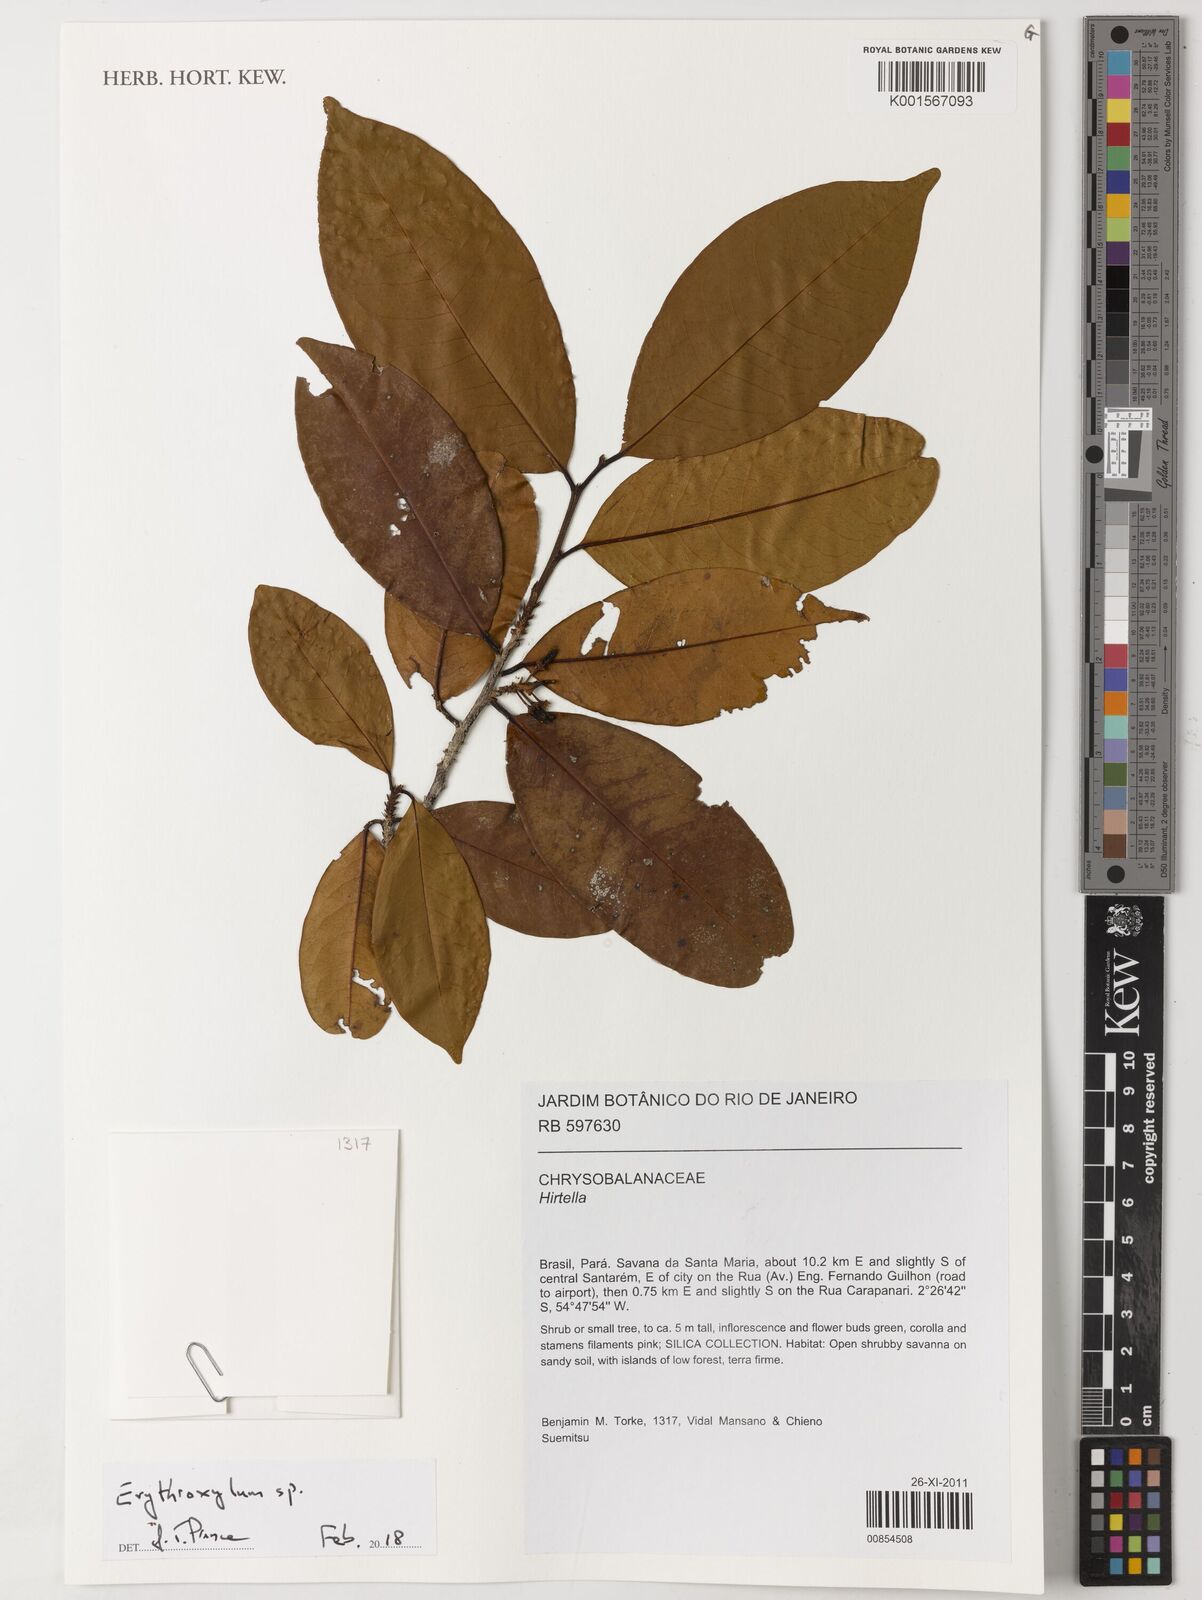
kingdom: Plantae
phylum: Tracheophyta
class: Magnoliopsida
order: Malpighiales
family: Erythroxylaceae
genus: Erythroxylum
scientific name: Erythroxylum
